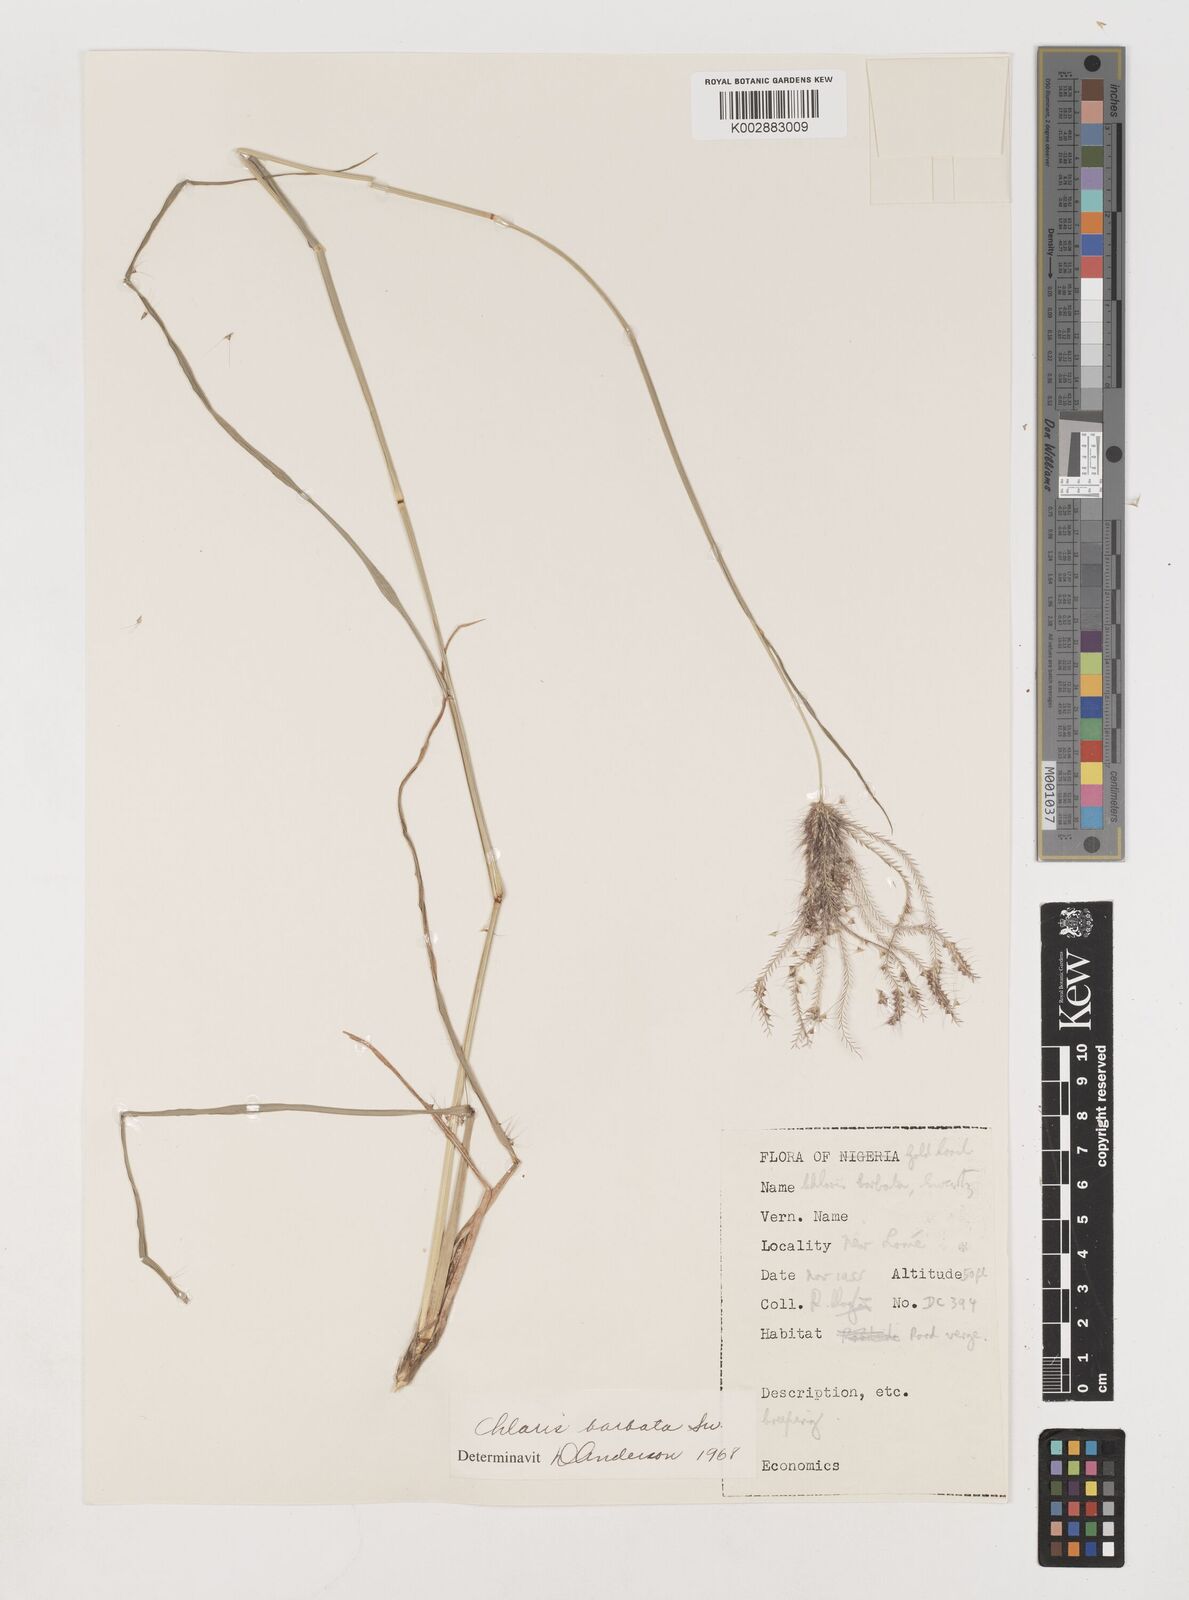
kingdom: Plantae
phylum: Tracheophyta
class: Liliopsida
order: Poales
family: Poaceae
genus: Chloris
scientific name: Chloris barbata
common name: Swollen fingergrass
